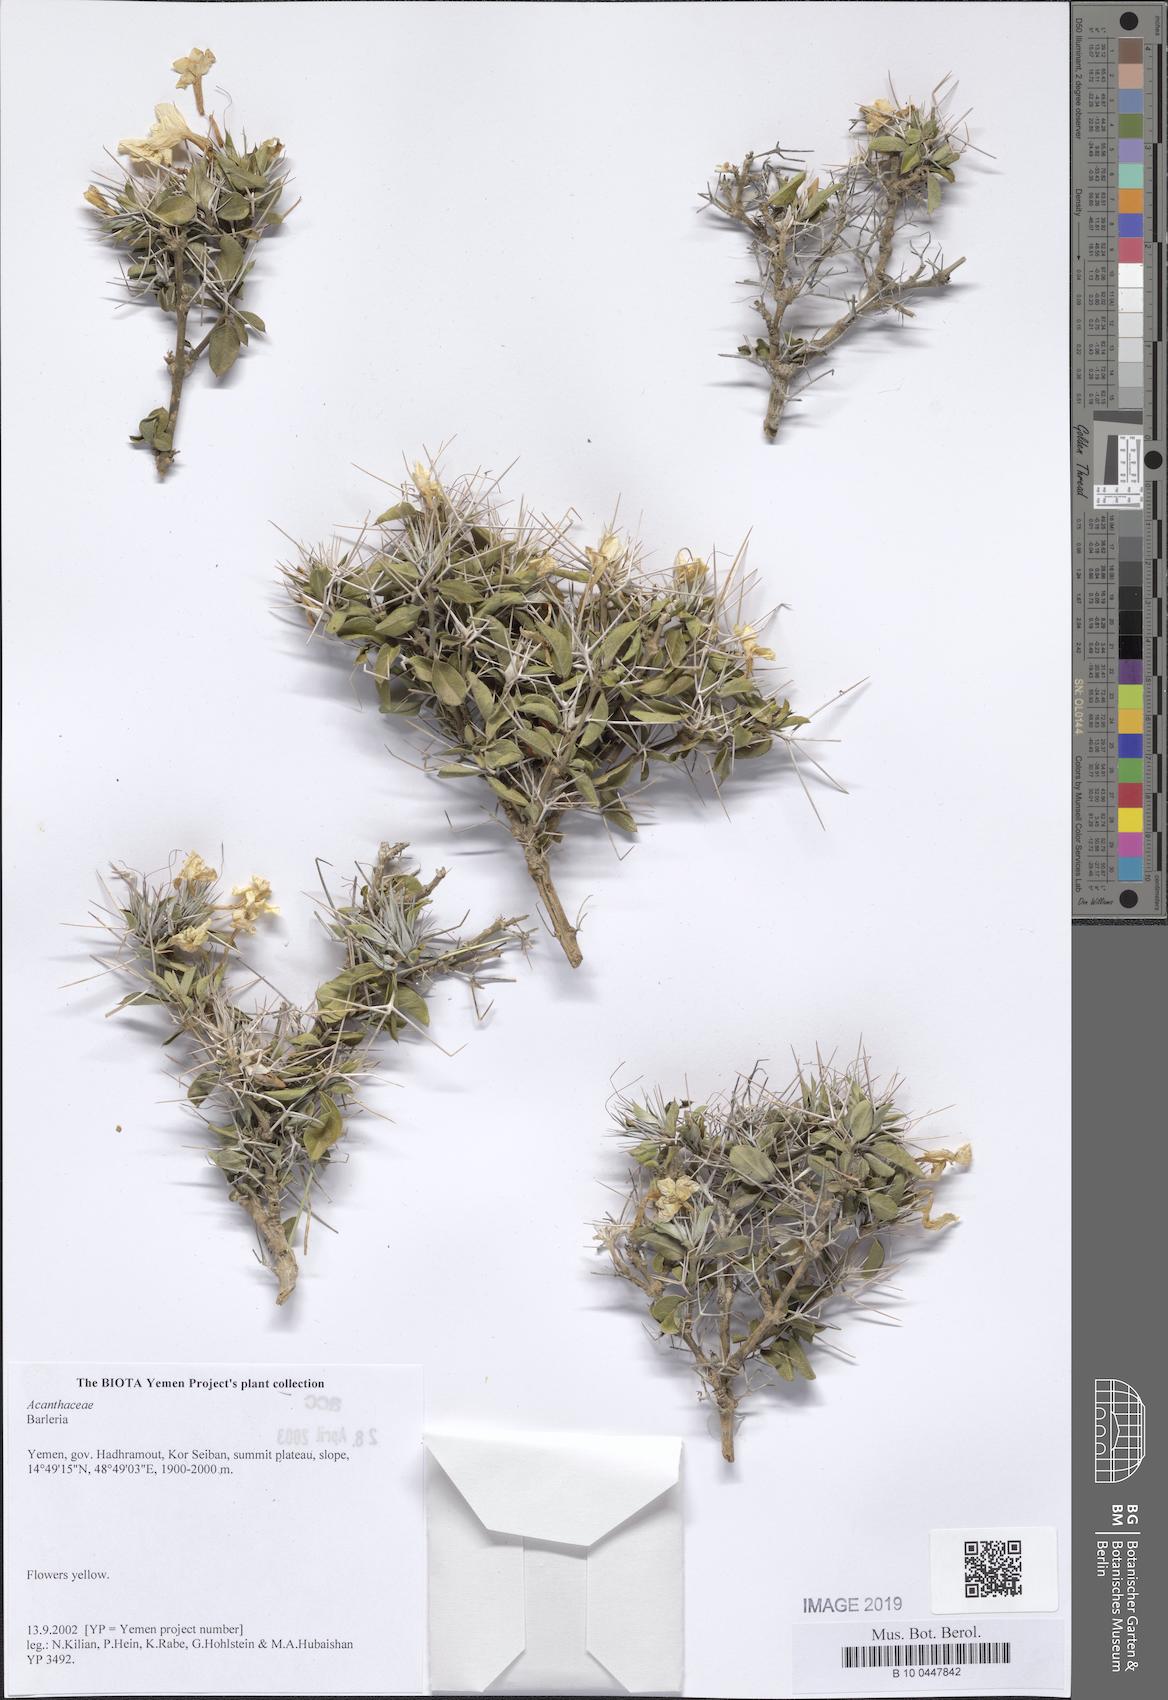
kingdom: Plantae
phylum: Tracheophyta
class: Magnoliopsida
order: Lamiales
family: Acanthaceae
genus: Barleria
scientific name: Barleria
